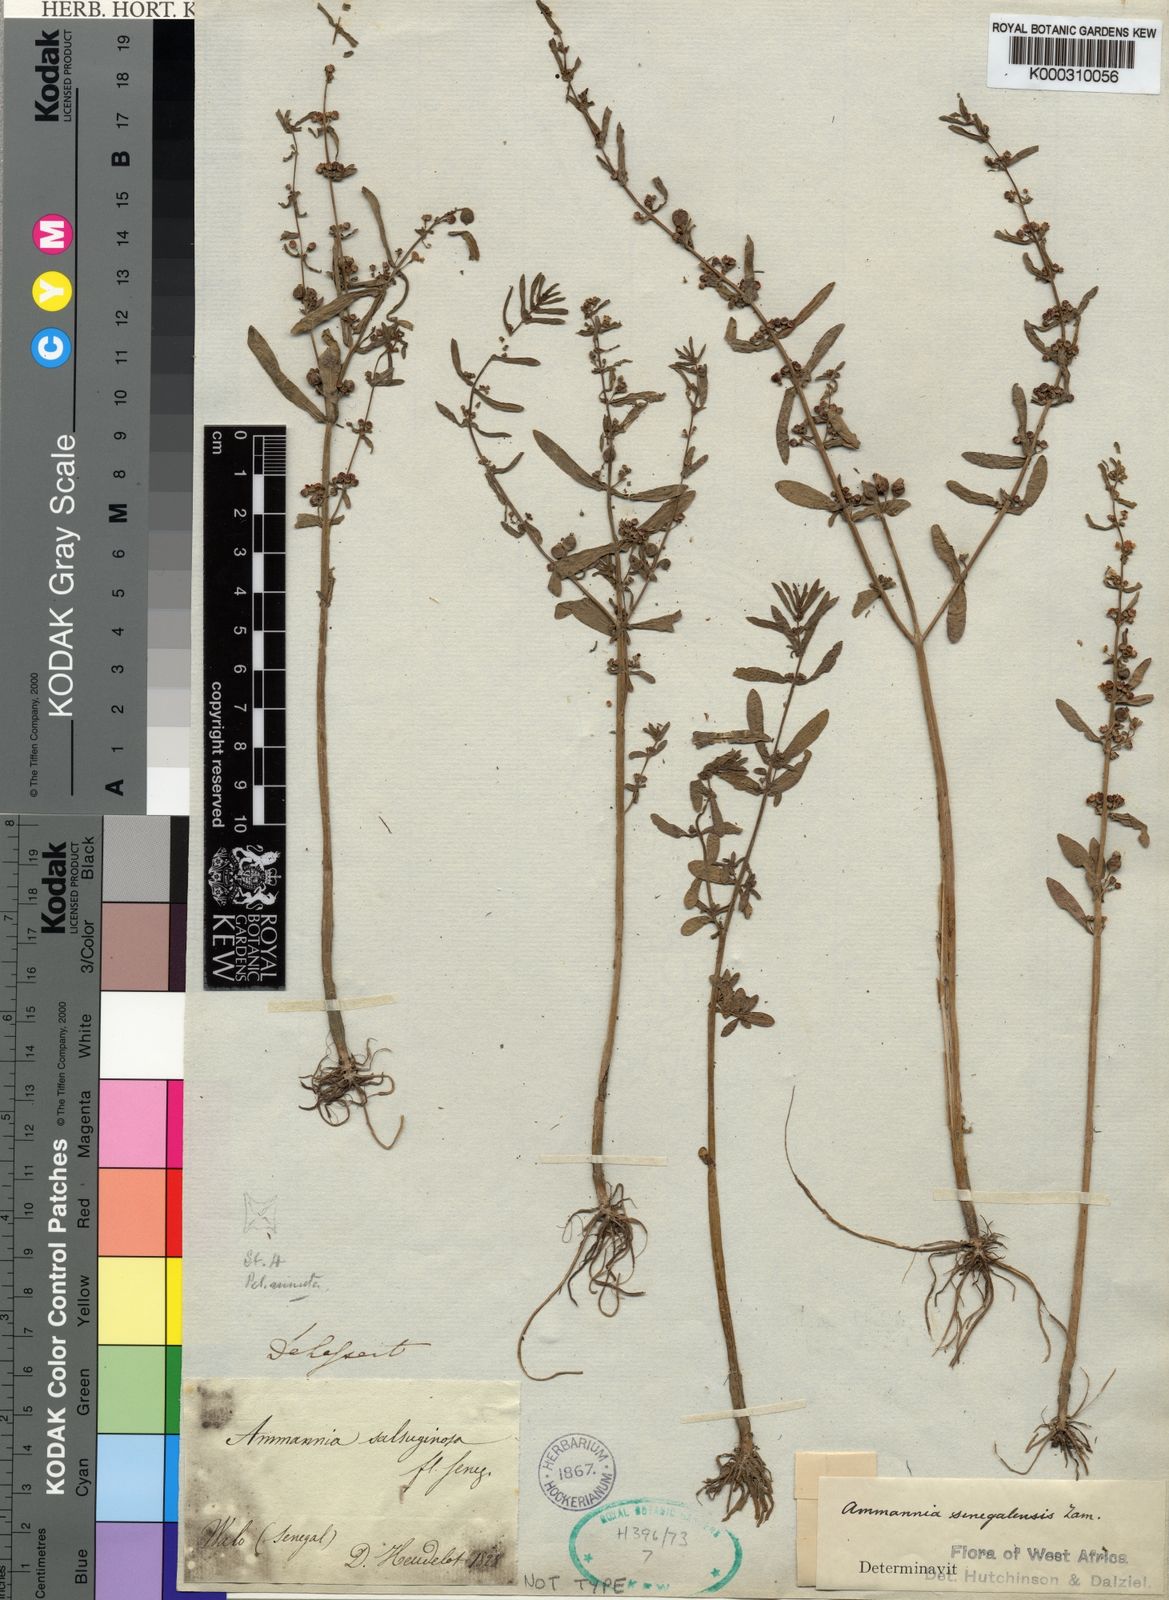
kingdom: Plantae
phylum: Tracheophyta
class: Magnoliopsida
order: Myrtales
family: Lythraceae
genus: Ammannia
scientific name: Ammannia
